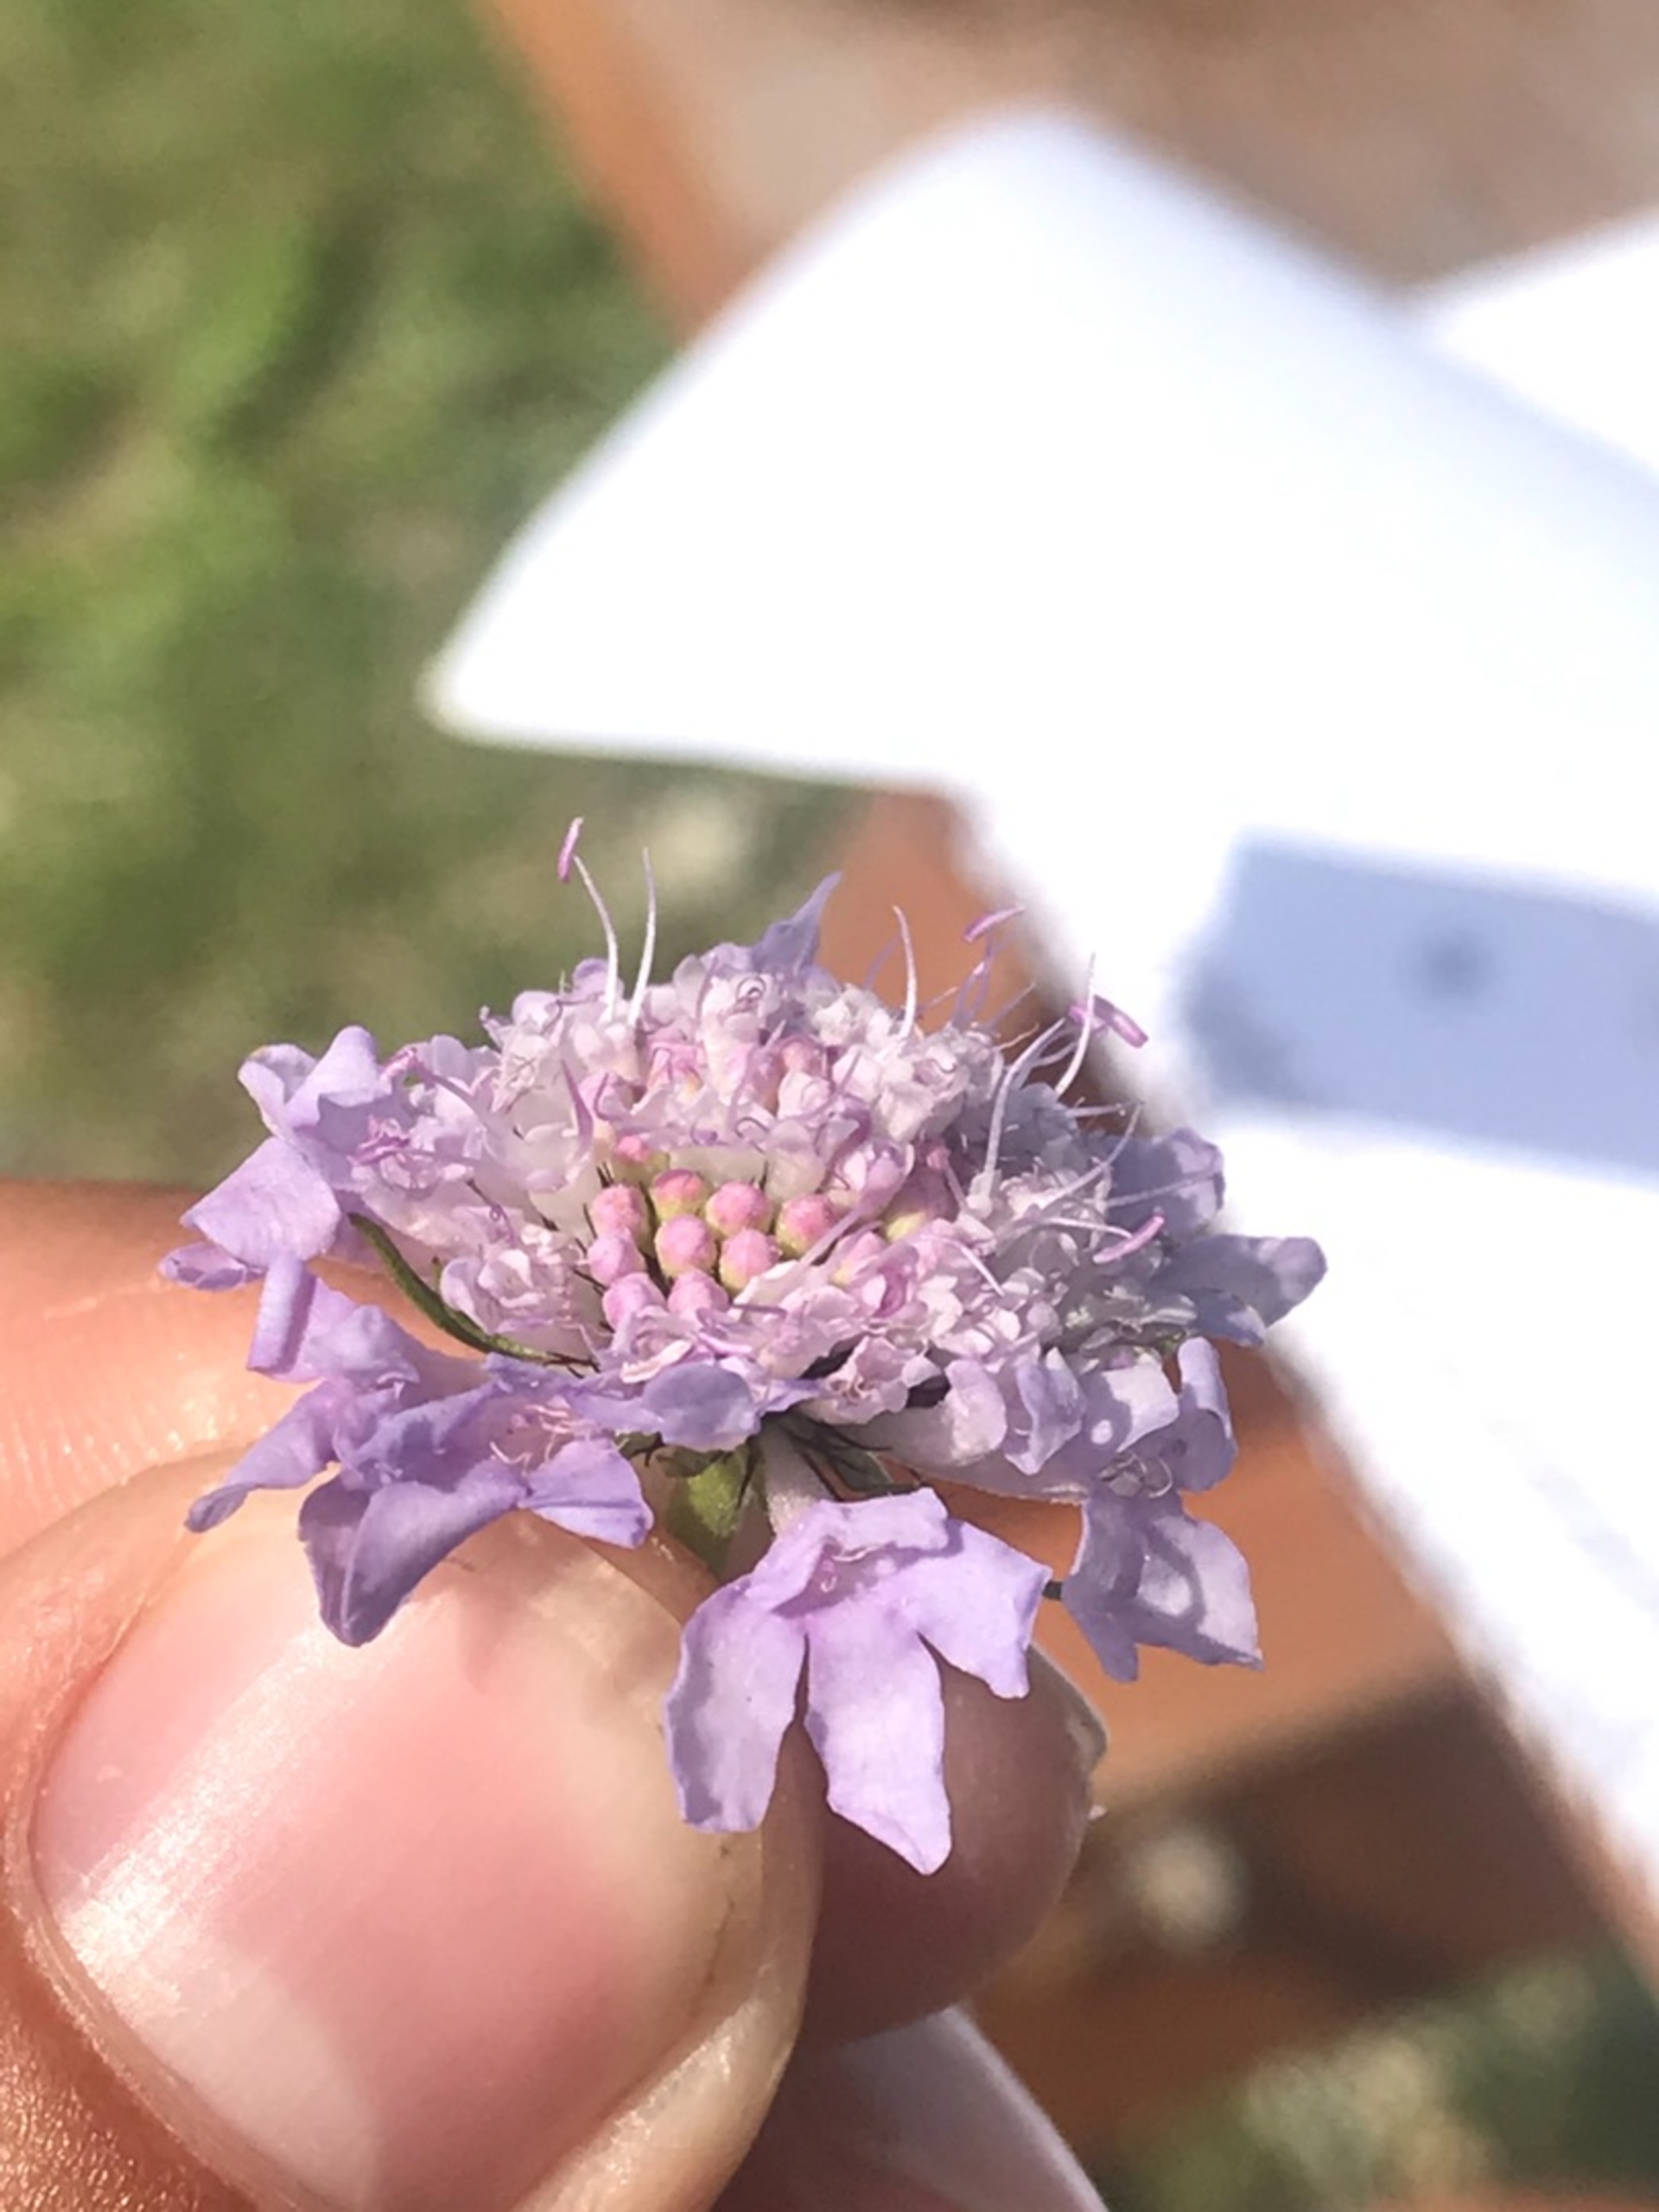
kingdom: Plantae
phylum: Tracheophyta
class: Magnoliopsida
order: Dipsacales
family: Caprifoliaceae
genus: Scabiosa
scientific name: Scabiosa columbaria
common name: Due-skabiose
